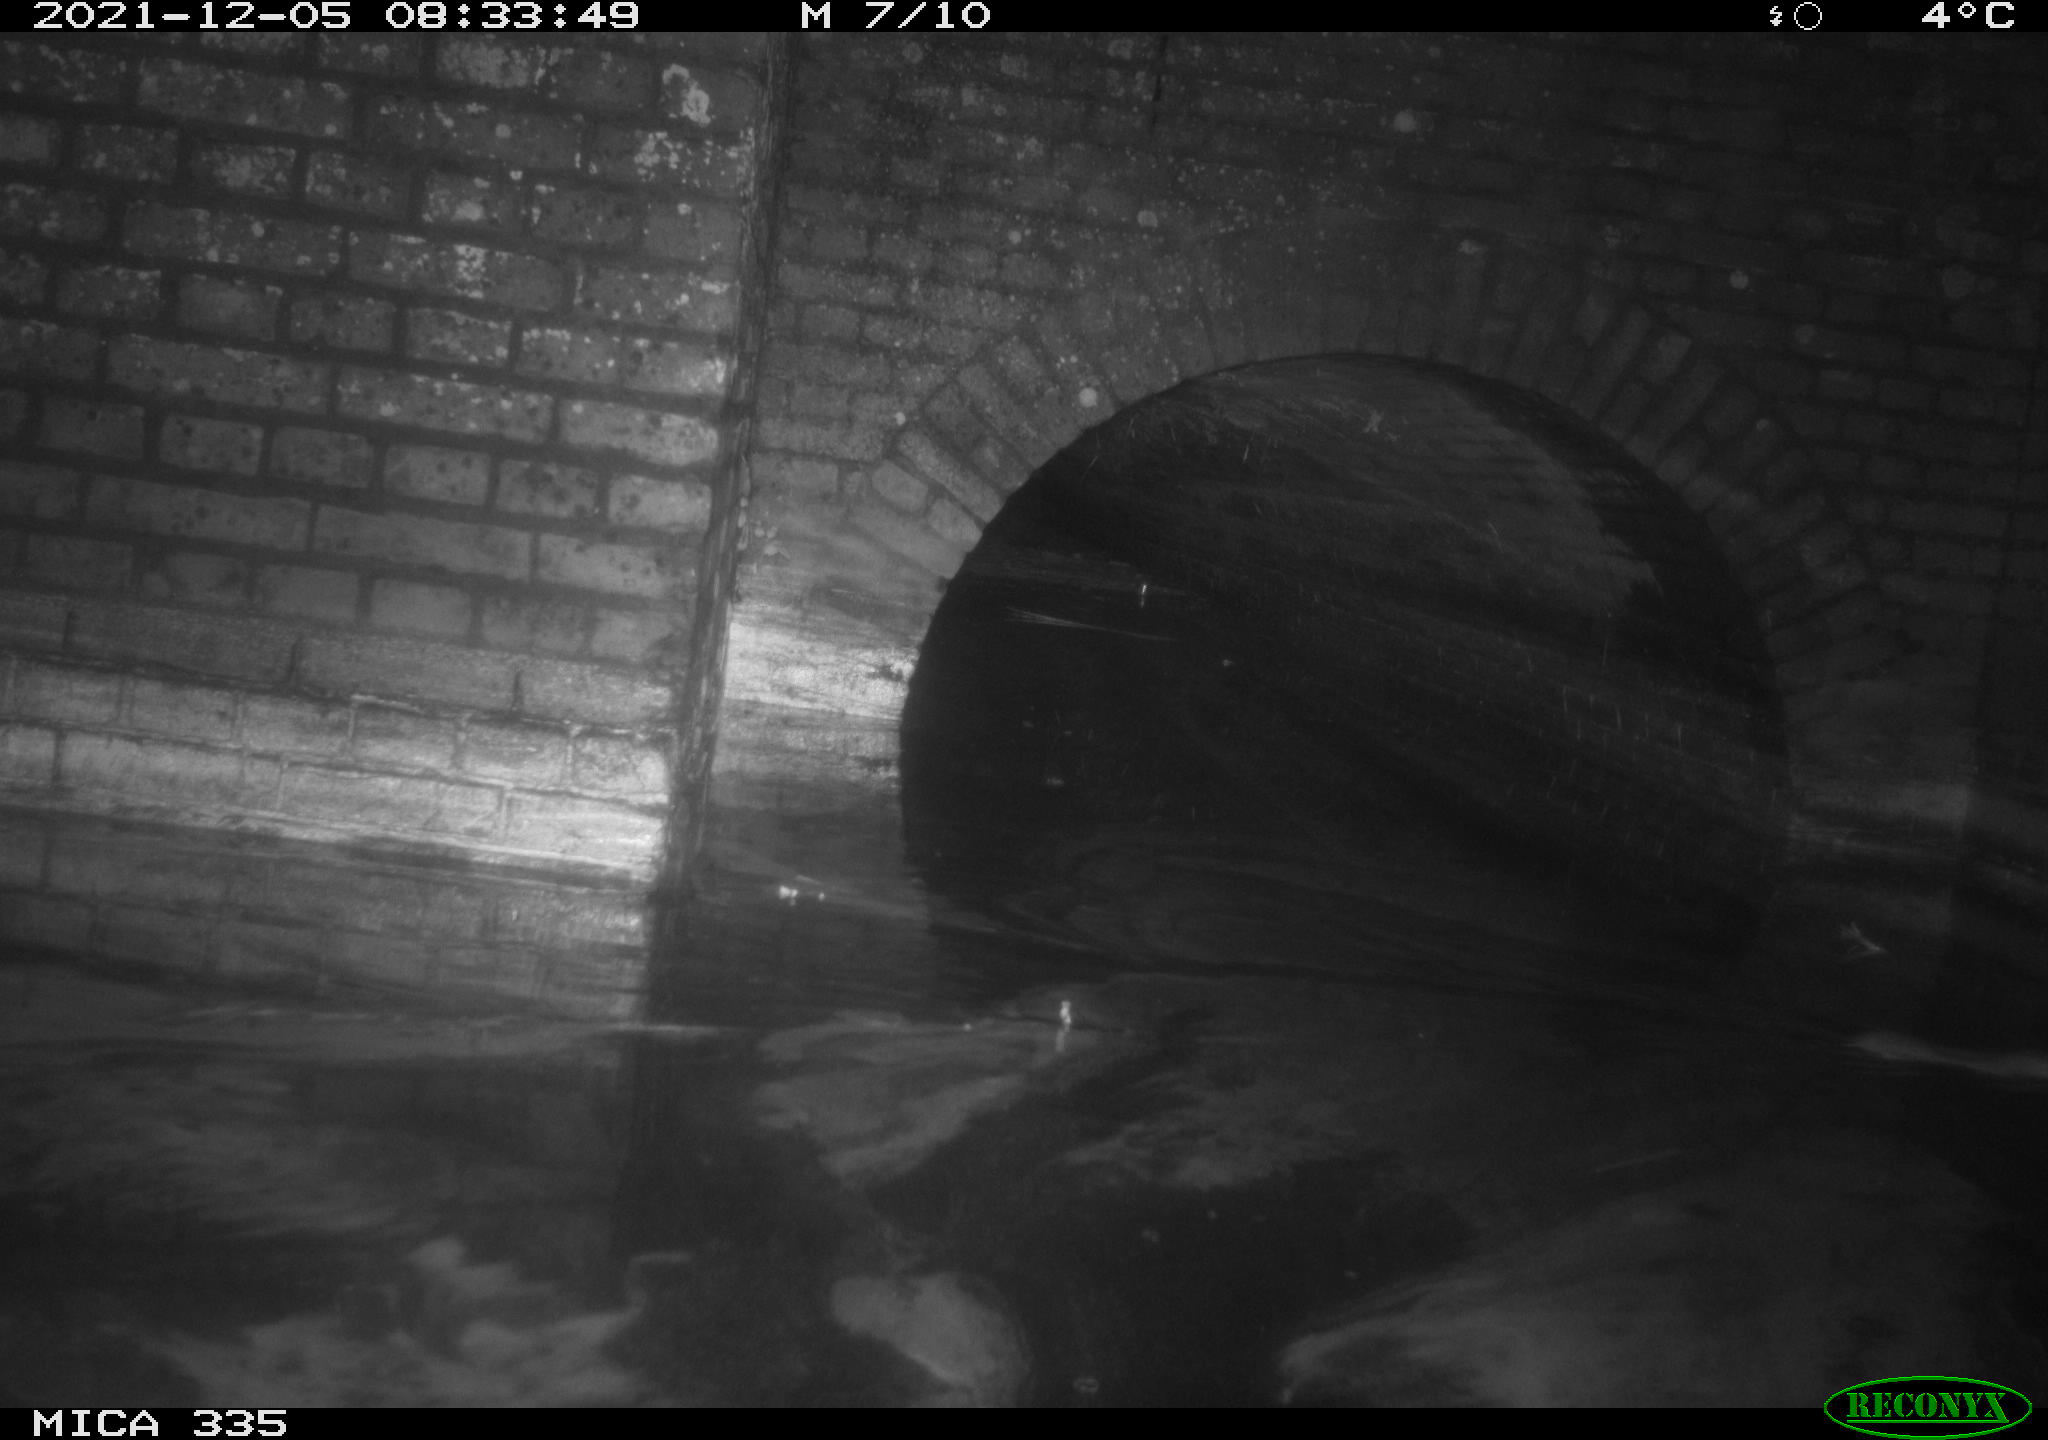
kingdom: Animalia
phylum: Chordata
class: Mammalia
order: Rodentia
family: Muridae
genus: Rattus
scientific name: Rattus norvegicus
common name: Brown rat
